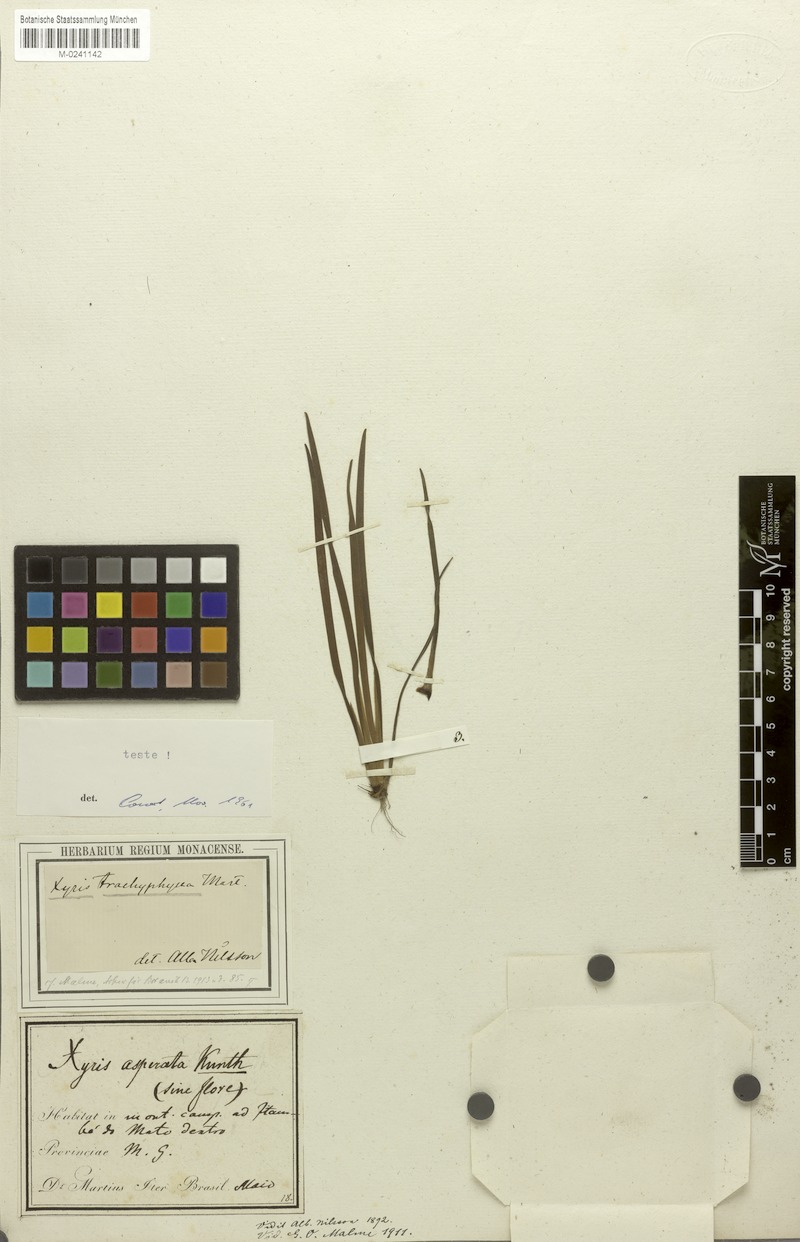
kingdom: Plantae
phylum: Tracheophyta
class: Liliopsida
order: Poales
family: Xyridaceae
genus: Xyris
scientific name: Xyris trachyphylla
